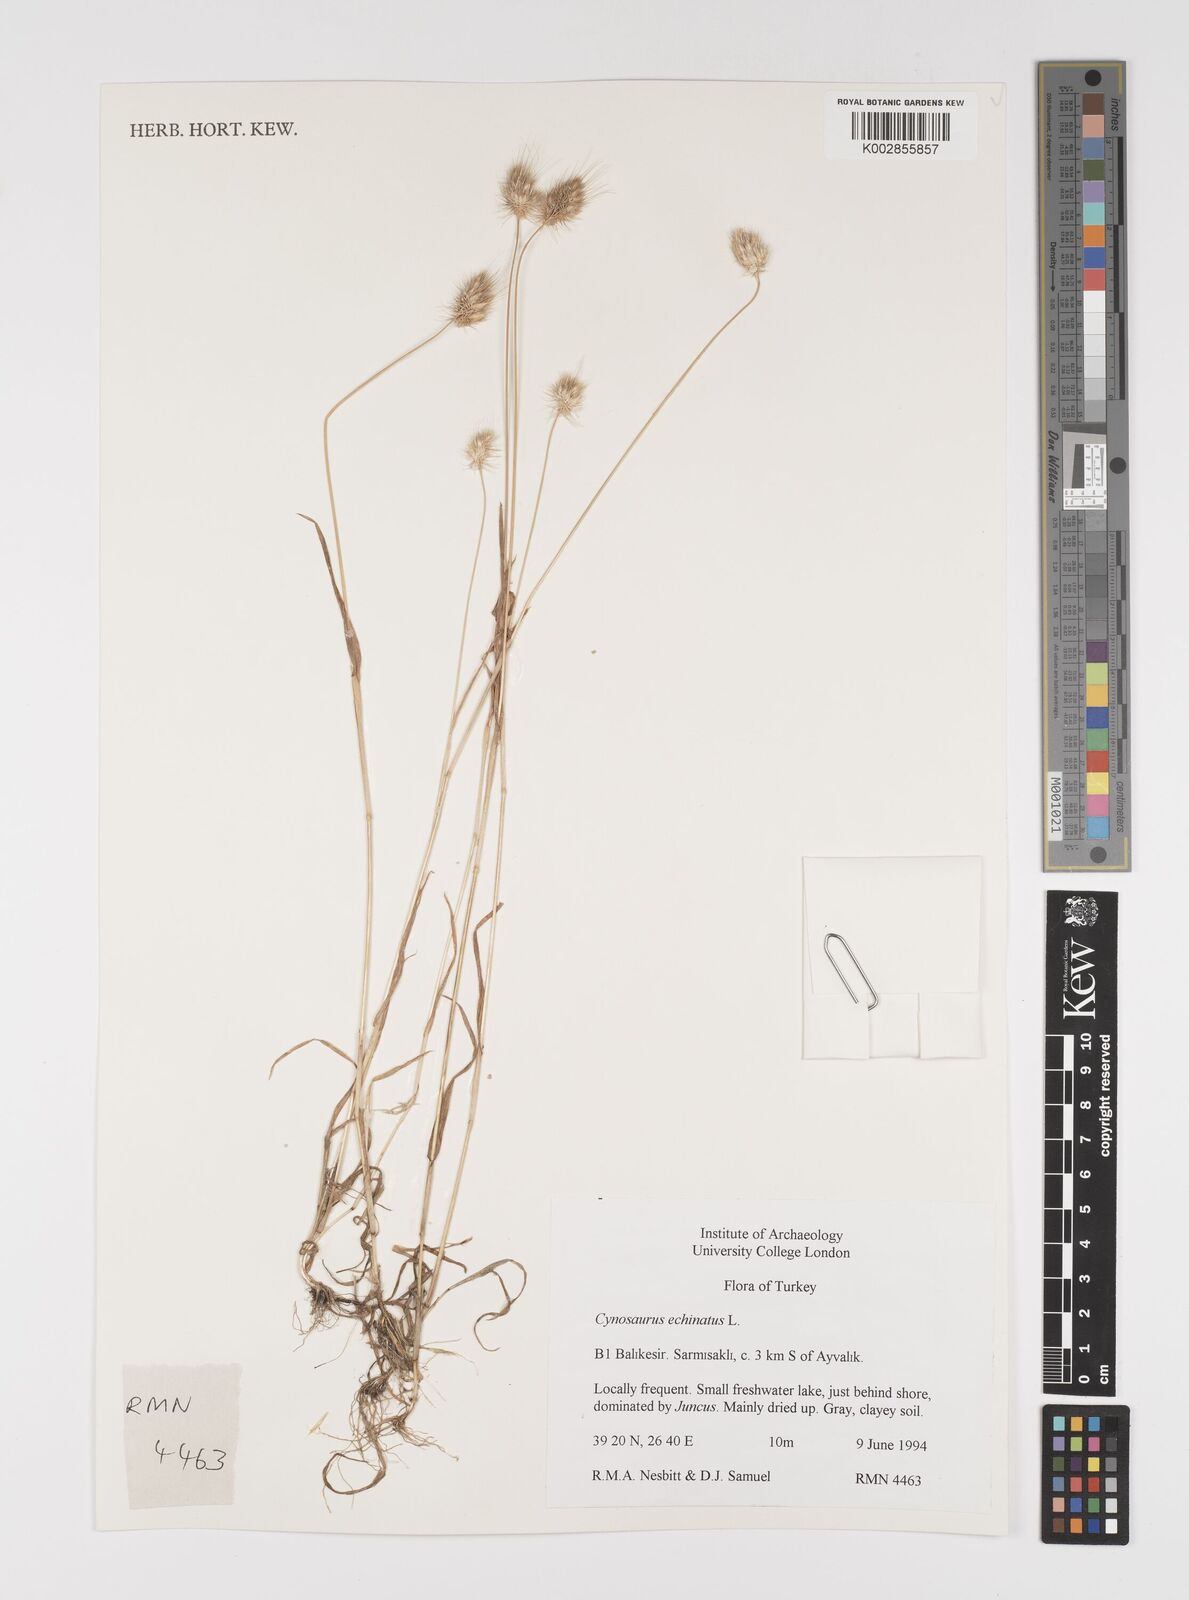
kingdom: Plantae
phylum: Tracheophyta
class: Liliopsida
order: Poales
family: Poaceae
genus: Cynosurus
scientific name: Cynosurus echinatus
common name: Rough dog's-tail
